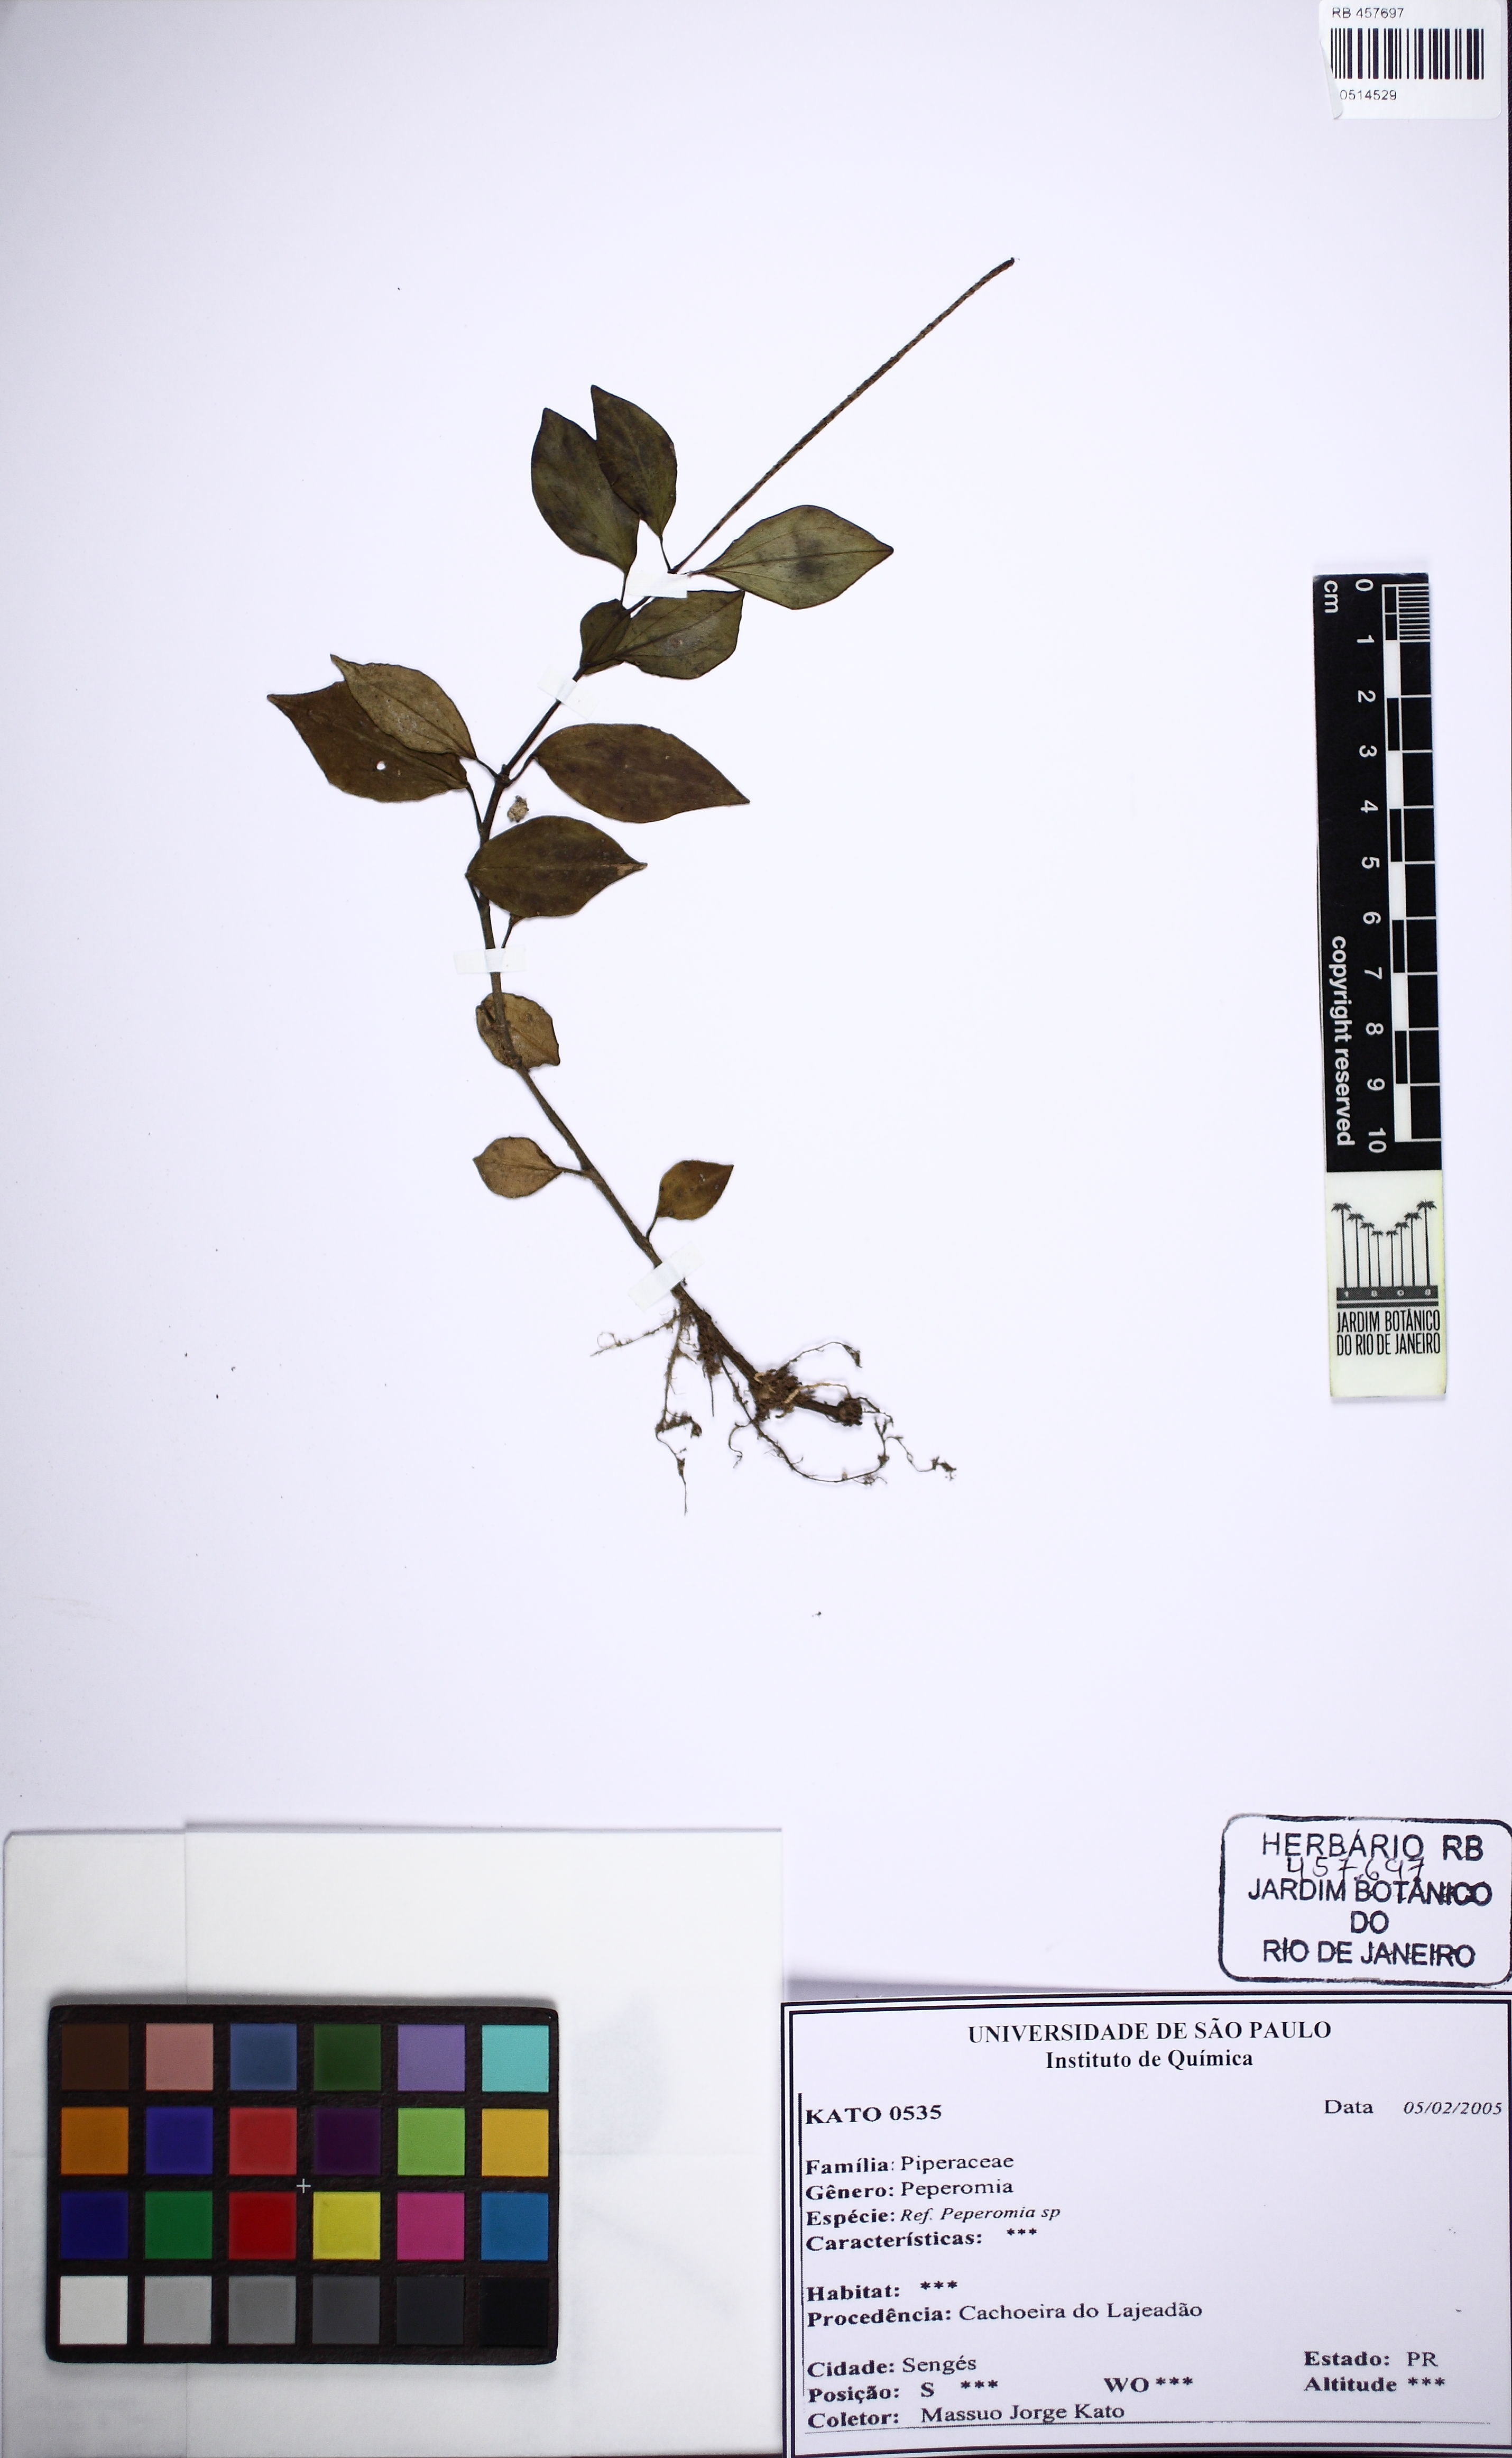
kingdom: Plantae
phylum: Tracheophyta
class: Magnoliopsida
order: Piperales
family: Piperaceae
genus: Peperomia
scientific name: Peperomia alata
